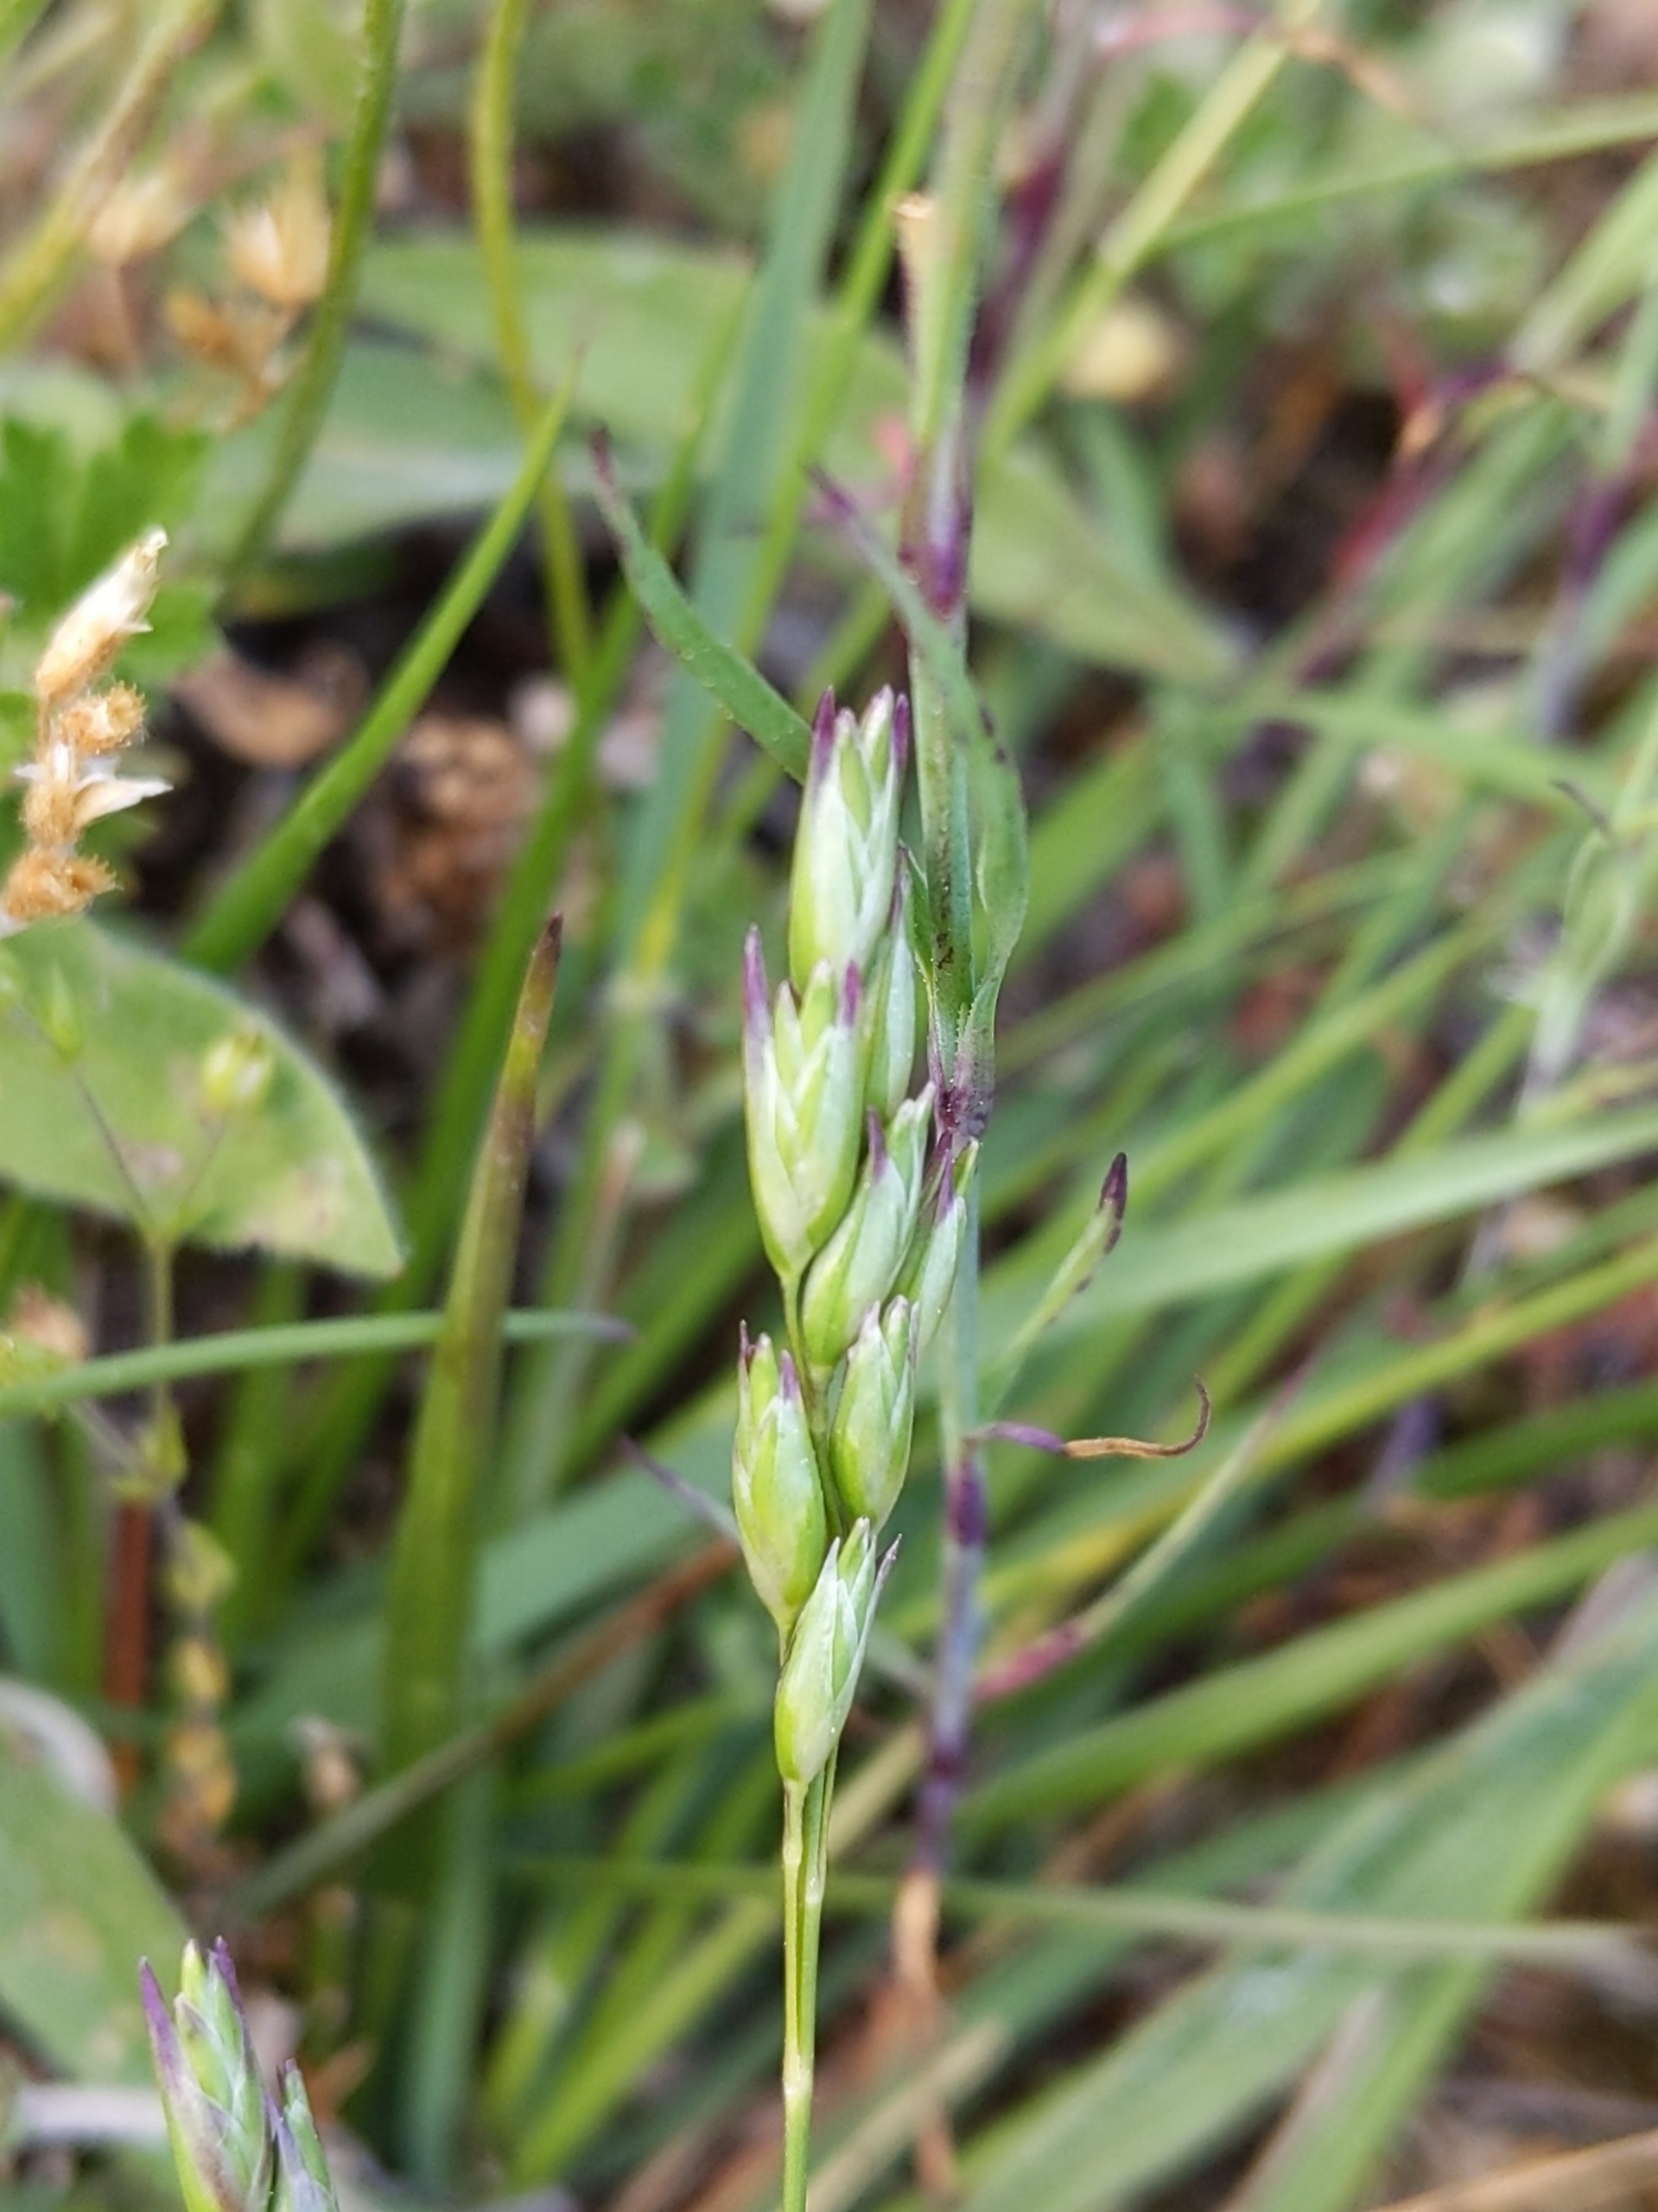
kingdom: Plantae
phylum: Tracheophyta
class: Liliopsida
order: Poales
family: Poaceae
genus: Danthonia
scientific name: Danthonia decumbens
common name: Tandbælg
